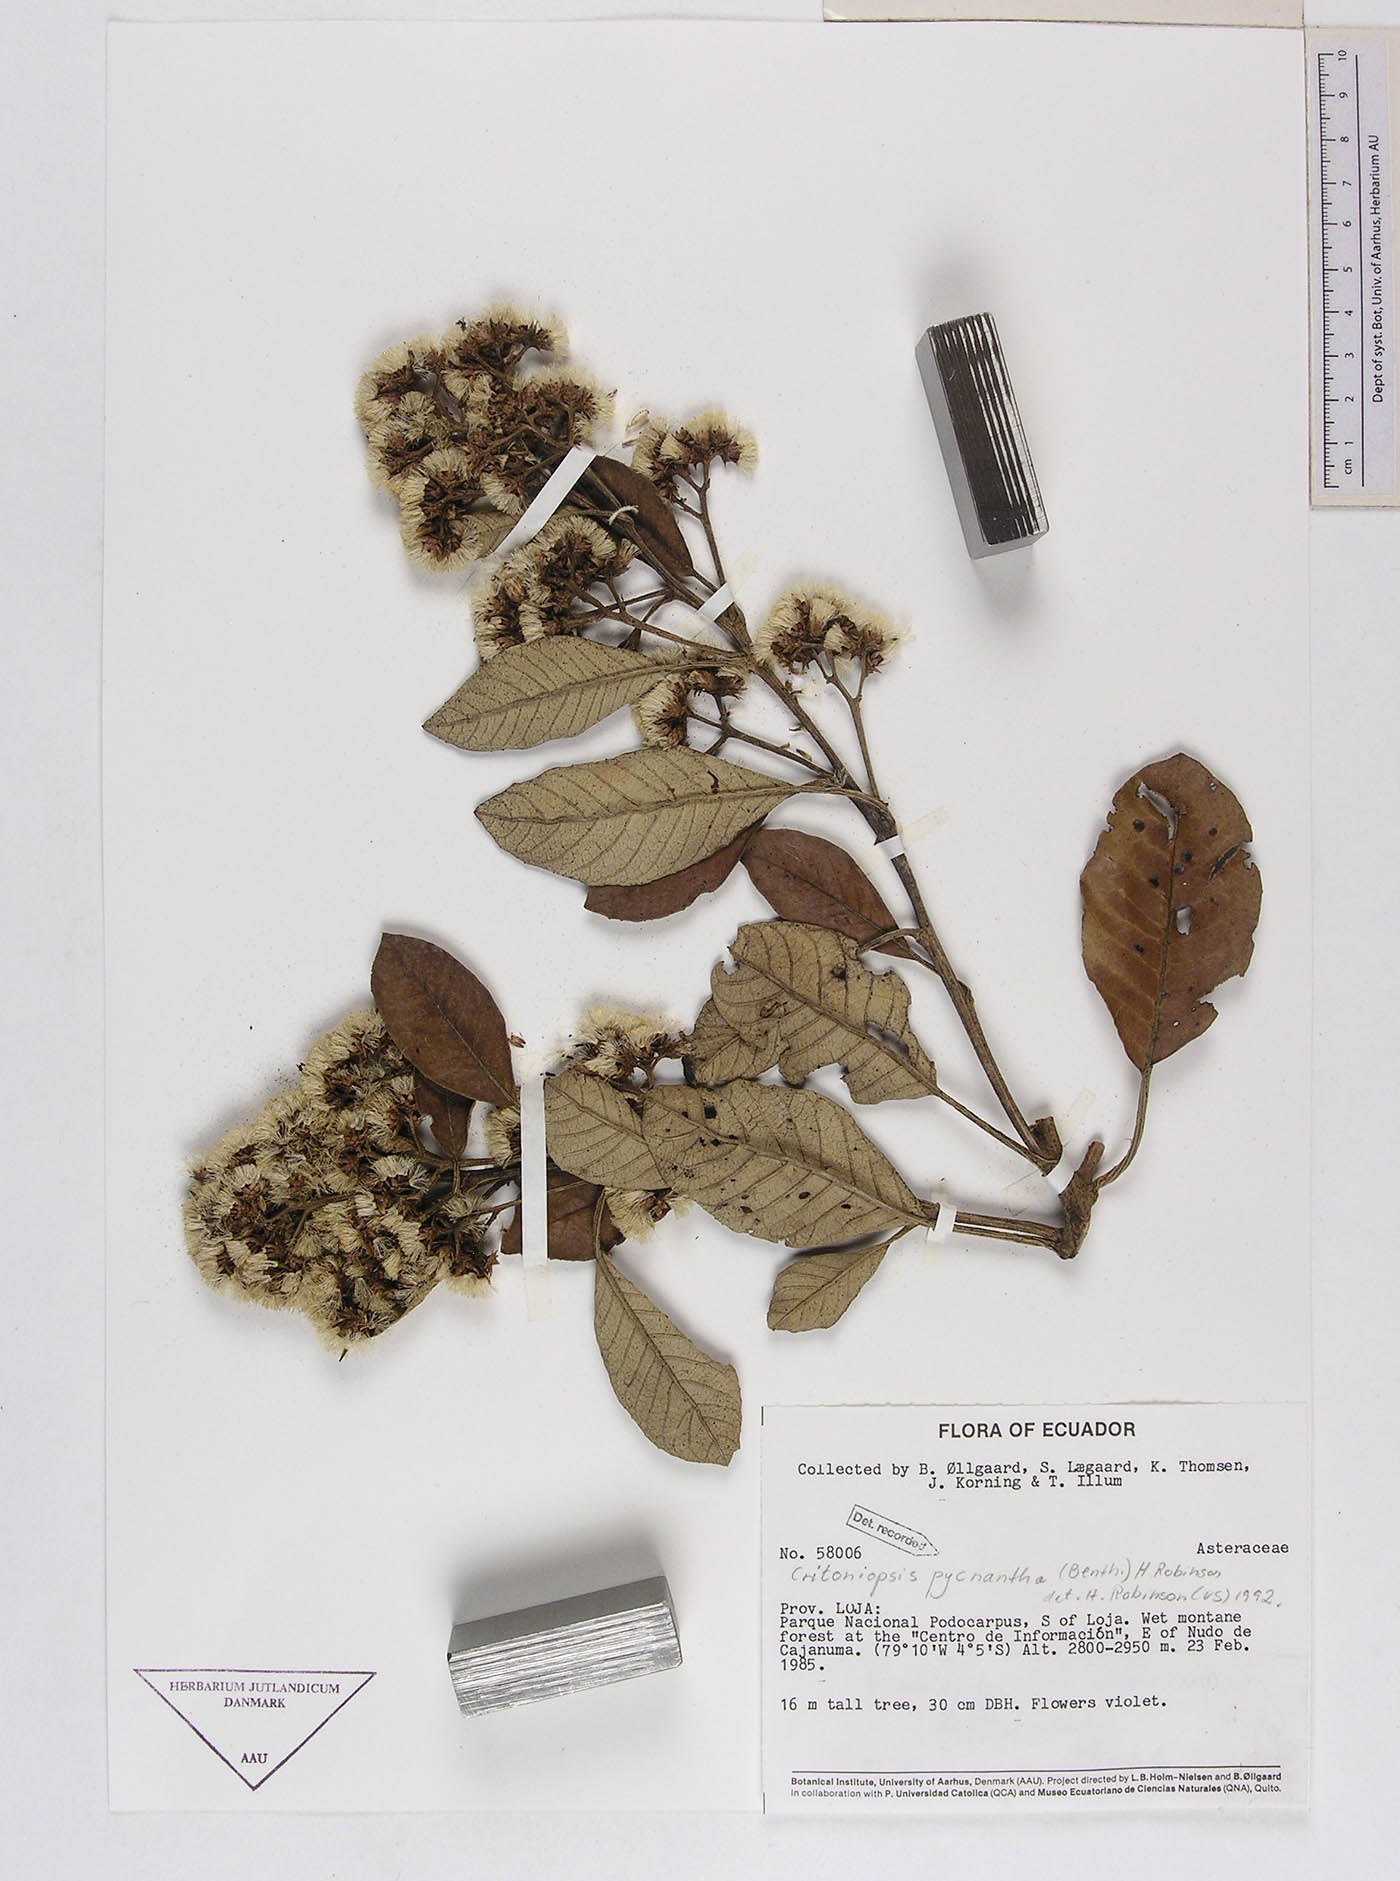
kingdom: Plantae
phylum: Tracheophyta
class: Magnoliopsida
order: Asterales
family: Asteraceae
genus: Critoniopsis
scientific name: Critoniopsis pycnantha
